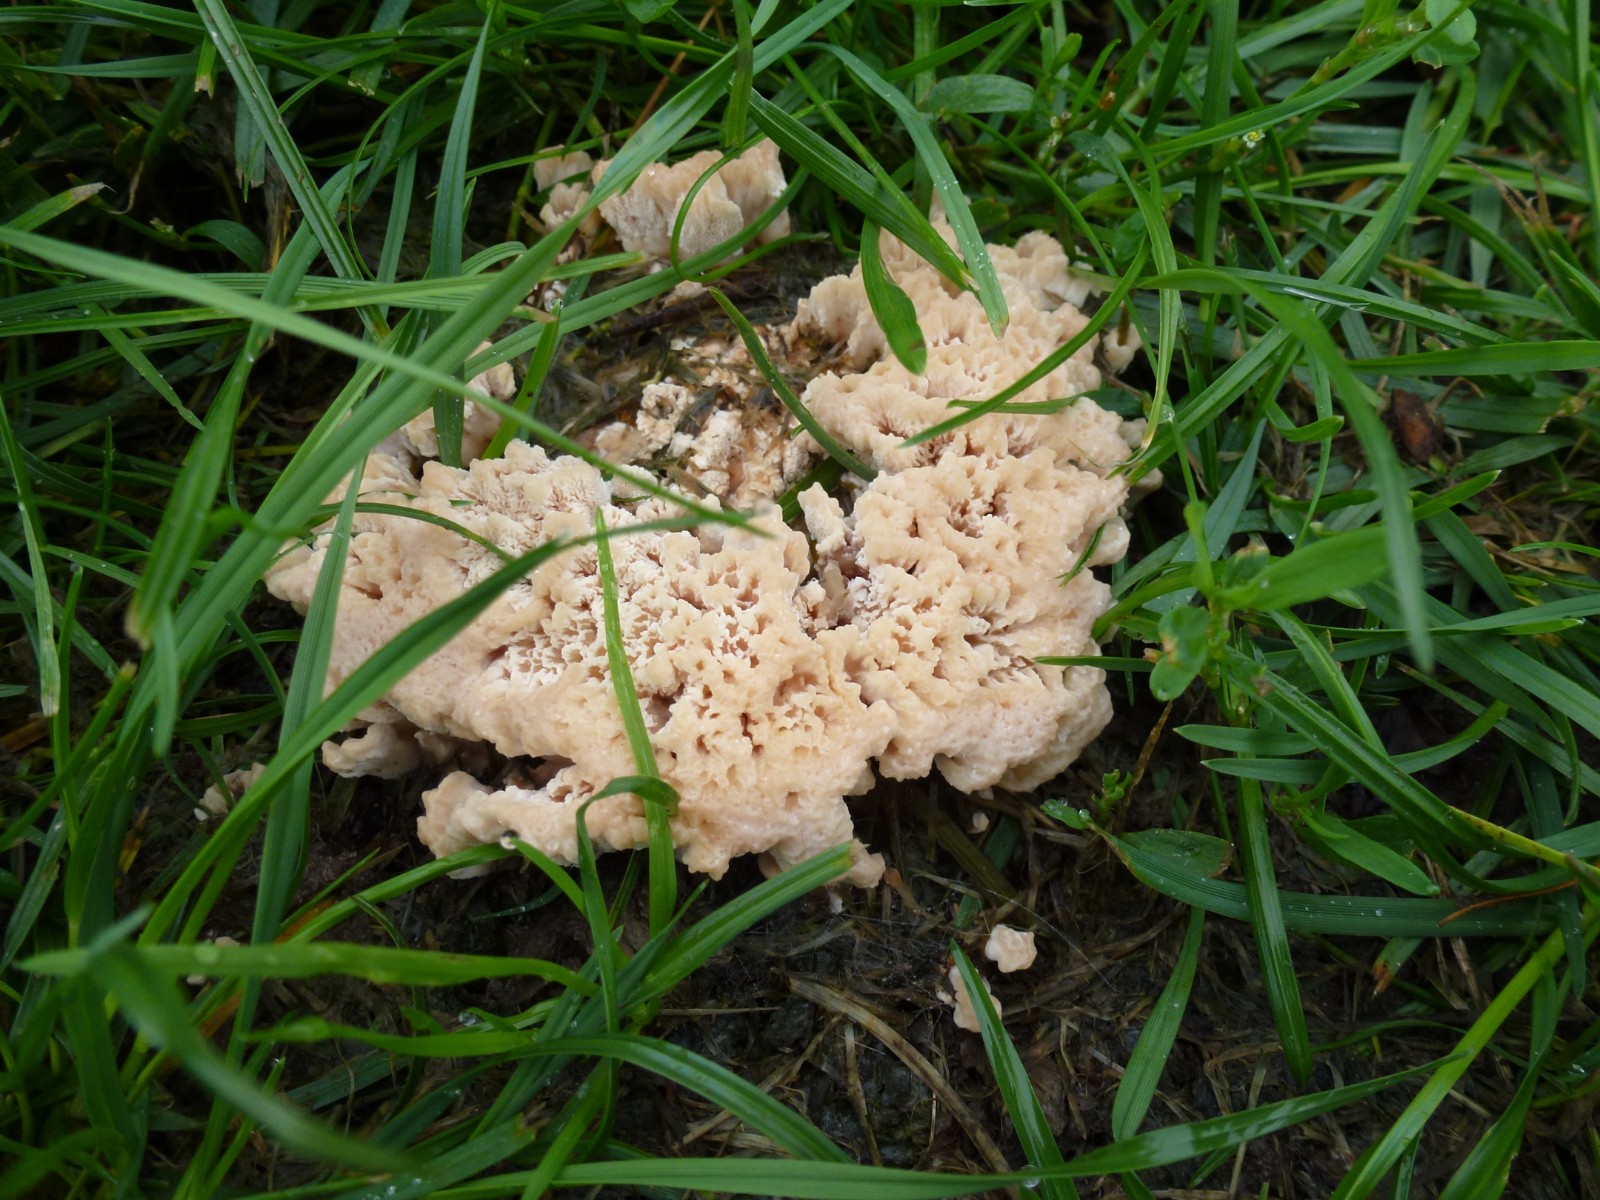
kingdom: Fungi
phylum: Basidiomycota
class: Agaricomycetes
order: Polyporales
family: Podoscyphaceae
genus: Abortiporus
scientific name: Abortiporus biennis
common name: rødmende pjalteporesvamp
